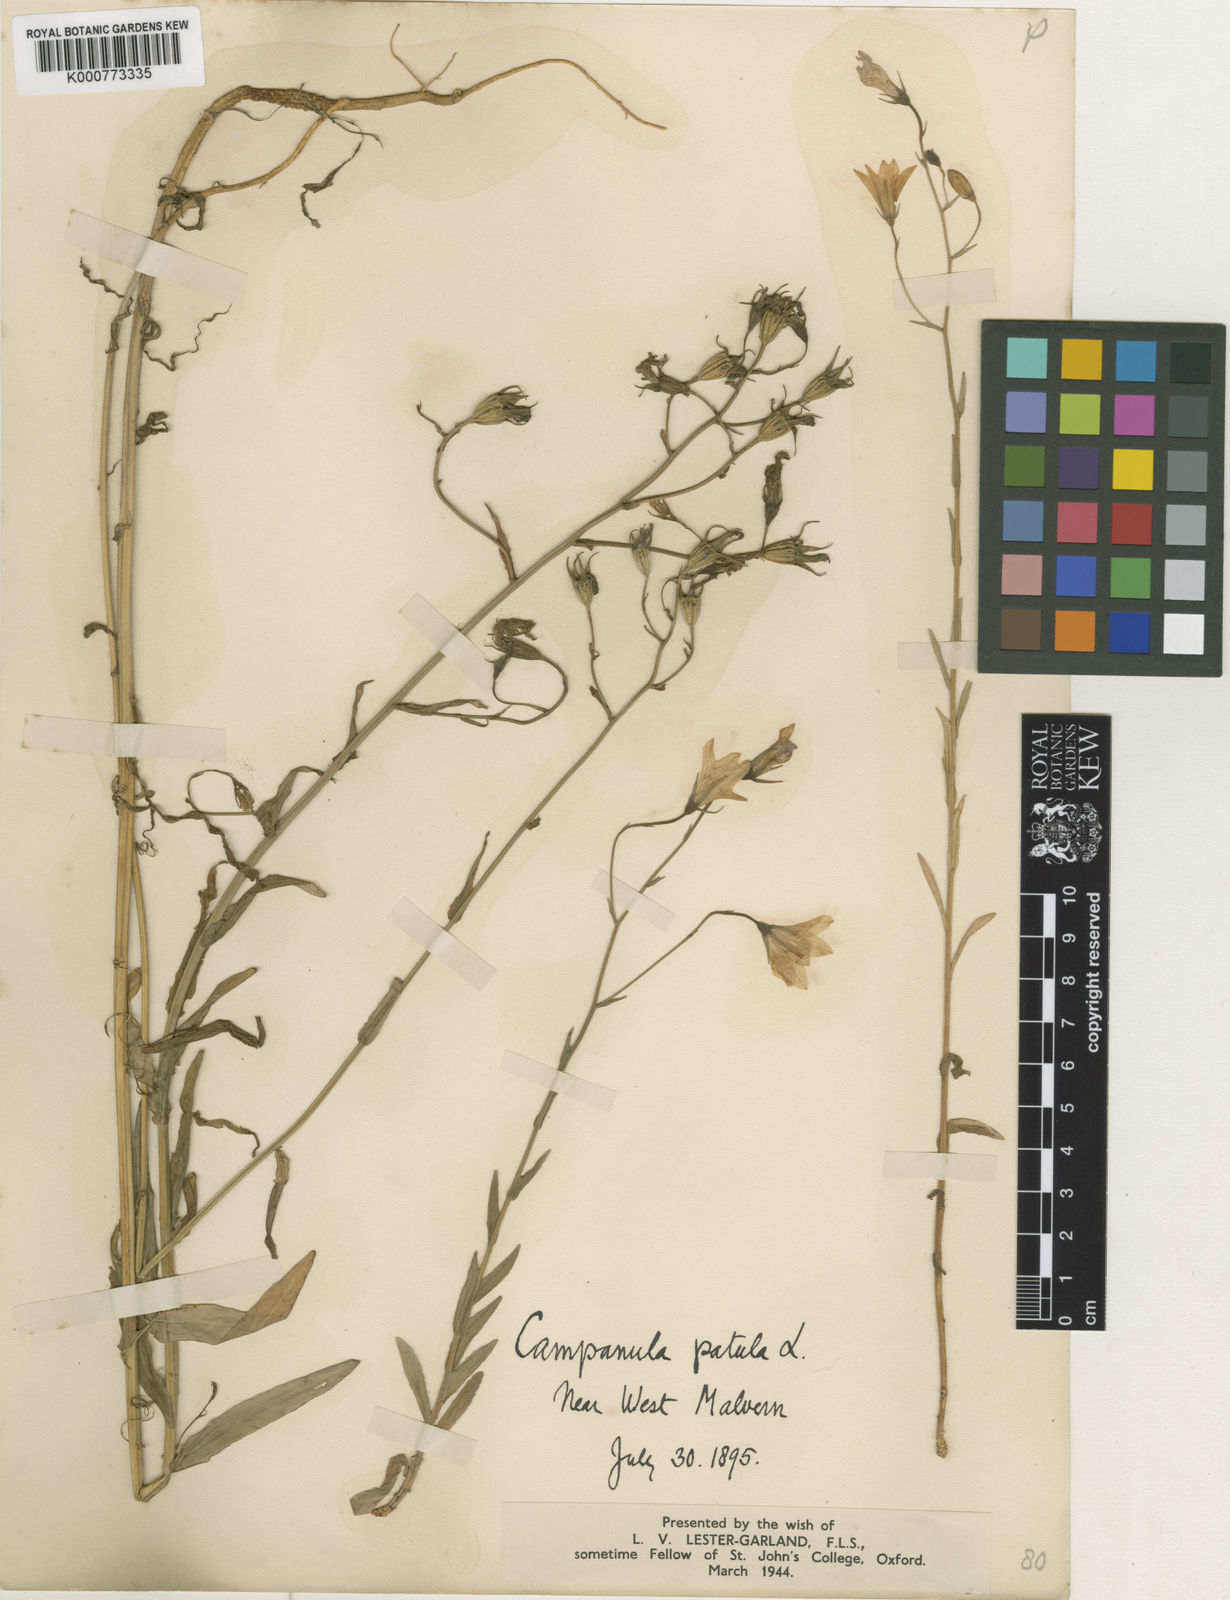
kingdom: Plantae
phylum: Tracheophyta
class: Magnoliopsida
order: Asterales
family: Campanulaceae
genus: Campanula
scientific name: Campanula patula
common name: Spreading bellflower
